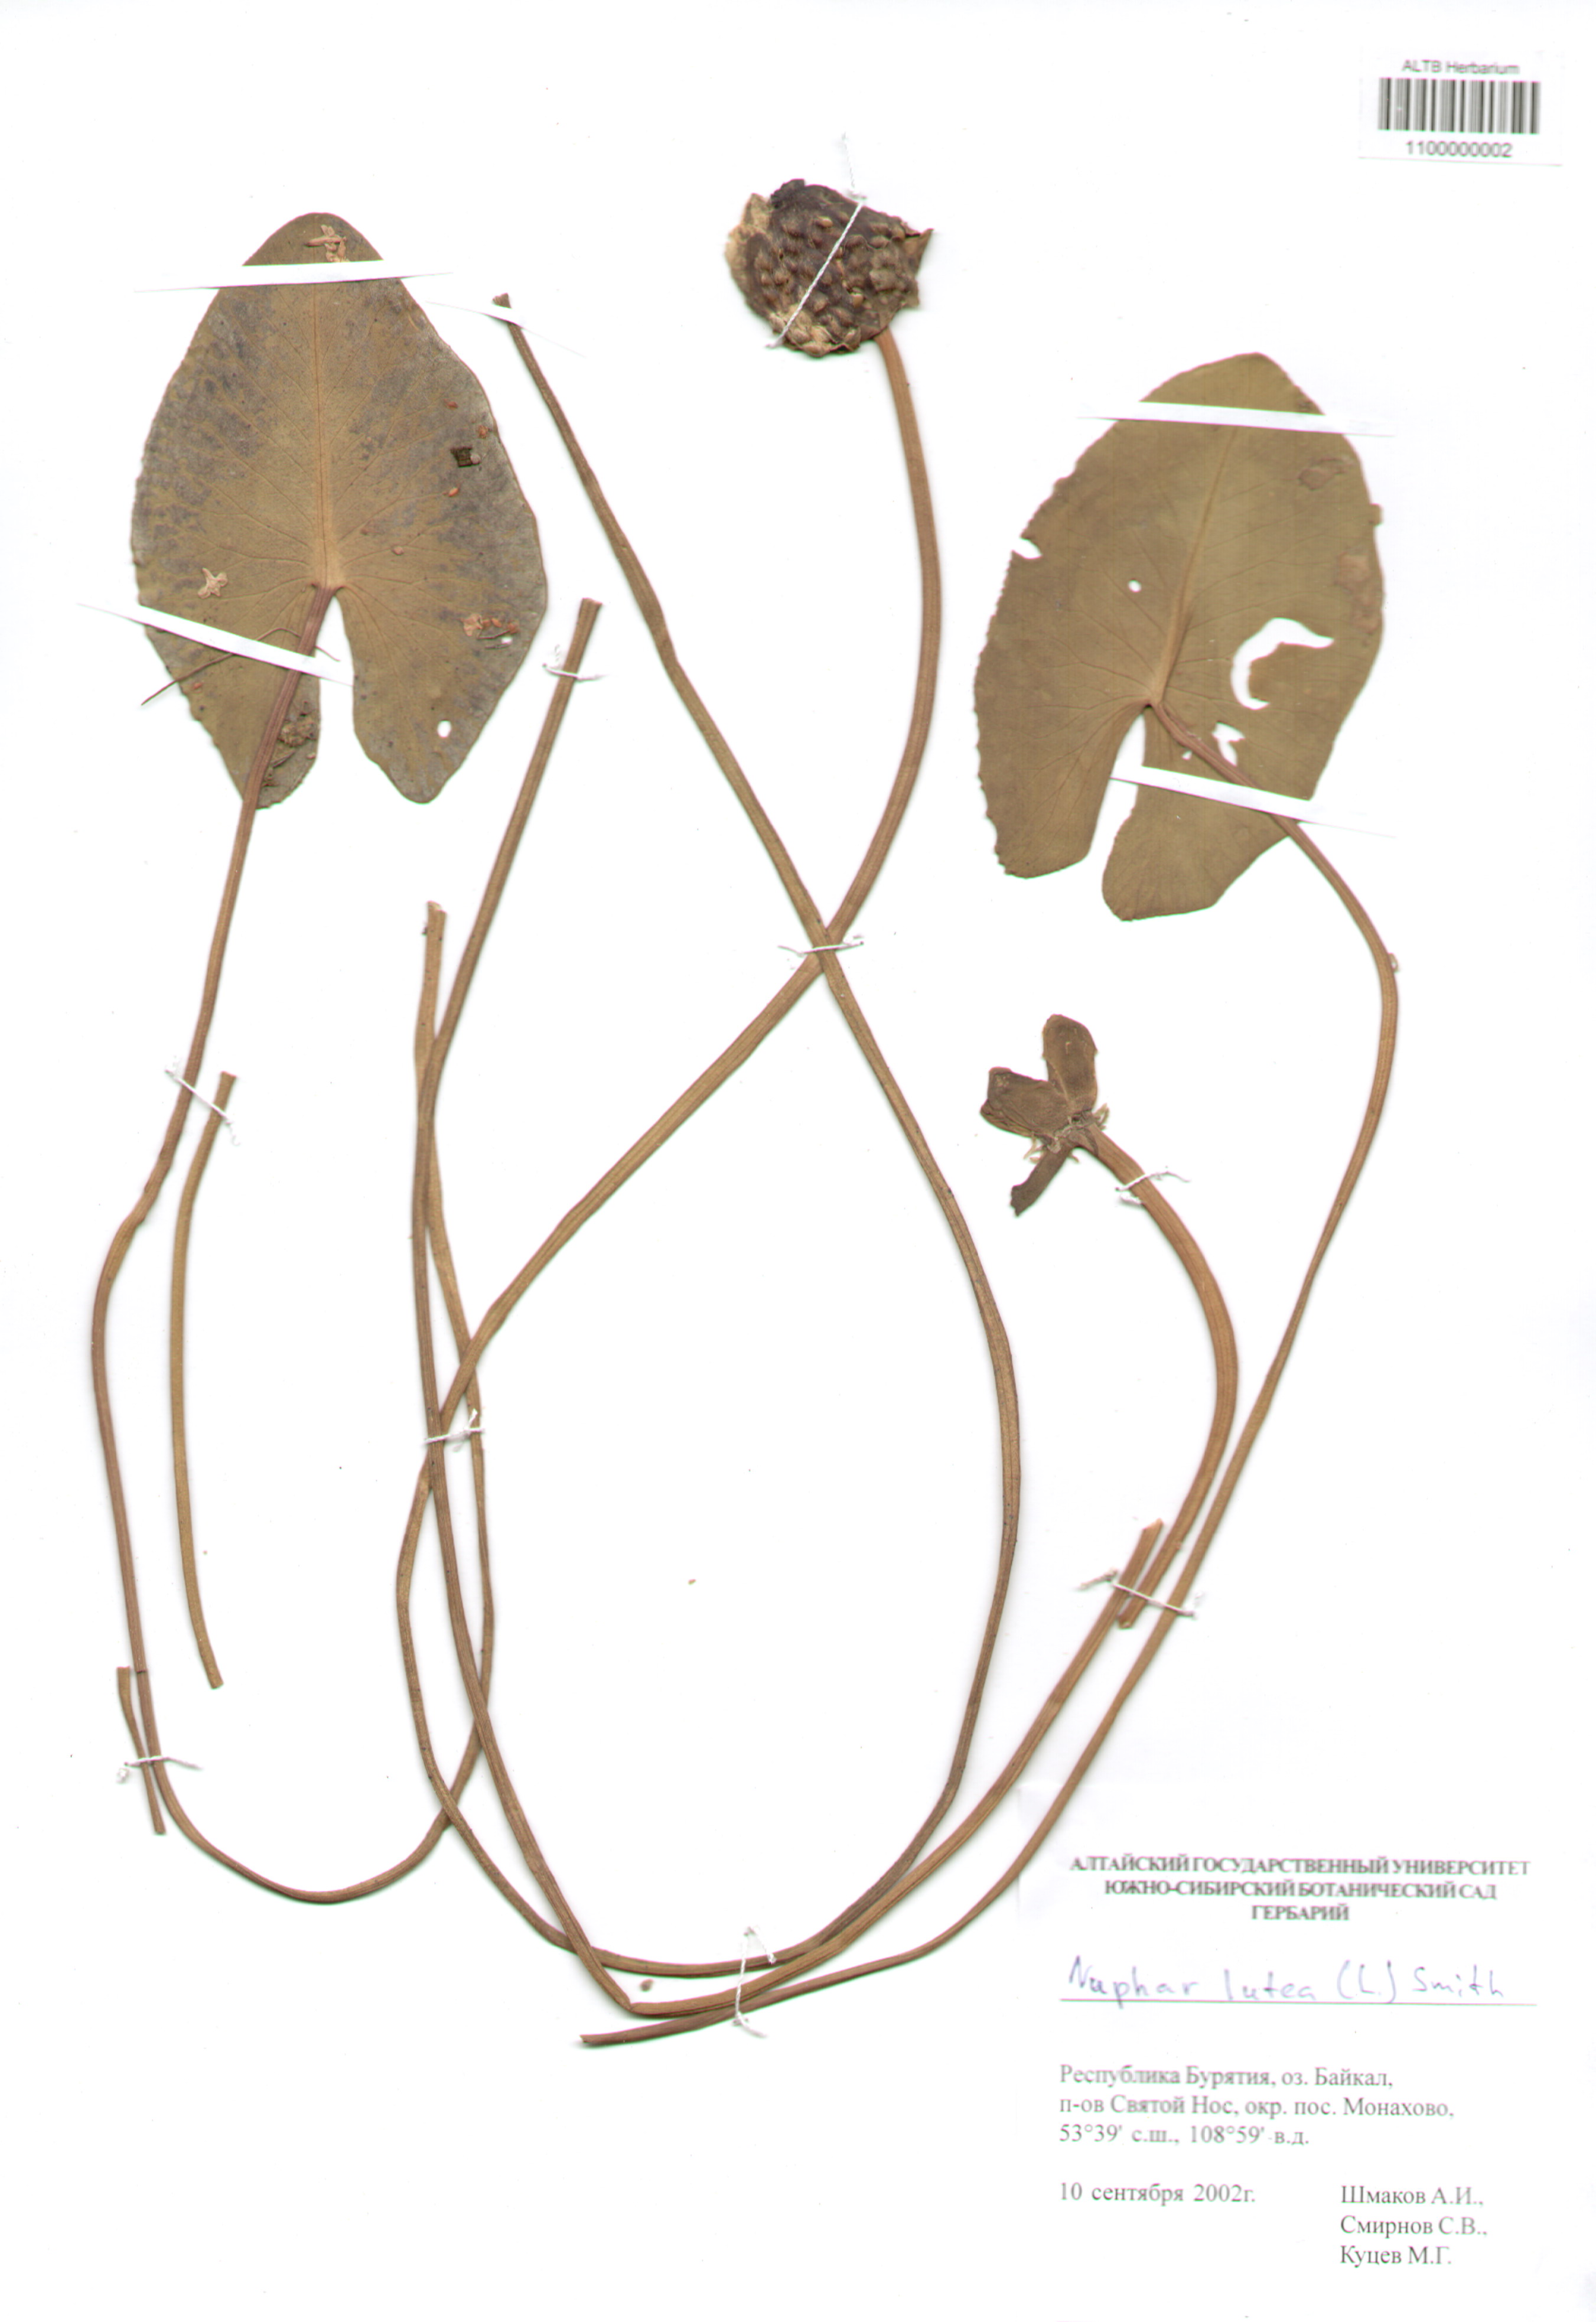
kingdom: Plantae
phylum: Tracheophyta
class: Magnoliopsida
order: Nymphaeales
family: Nymphaeaceae
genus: Nuphar
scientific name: Nuphar lutea
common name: Yellow water-lily
